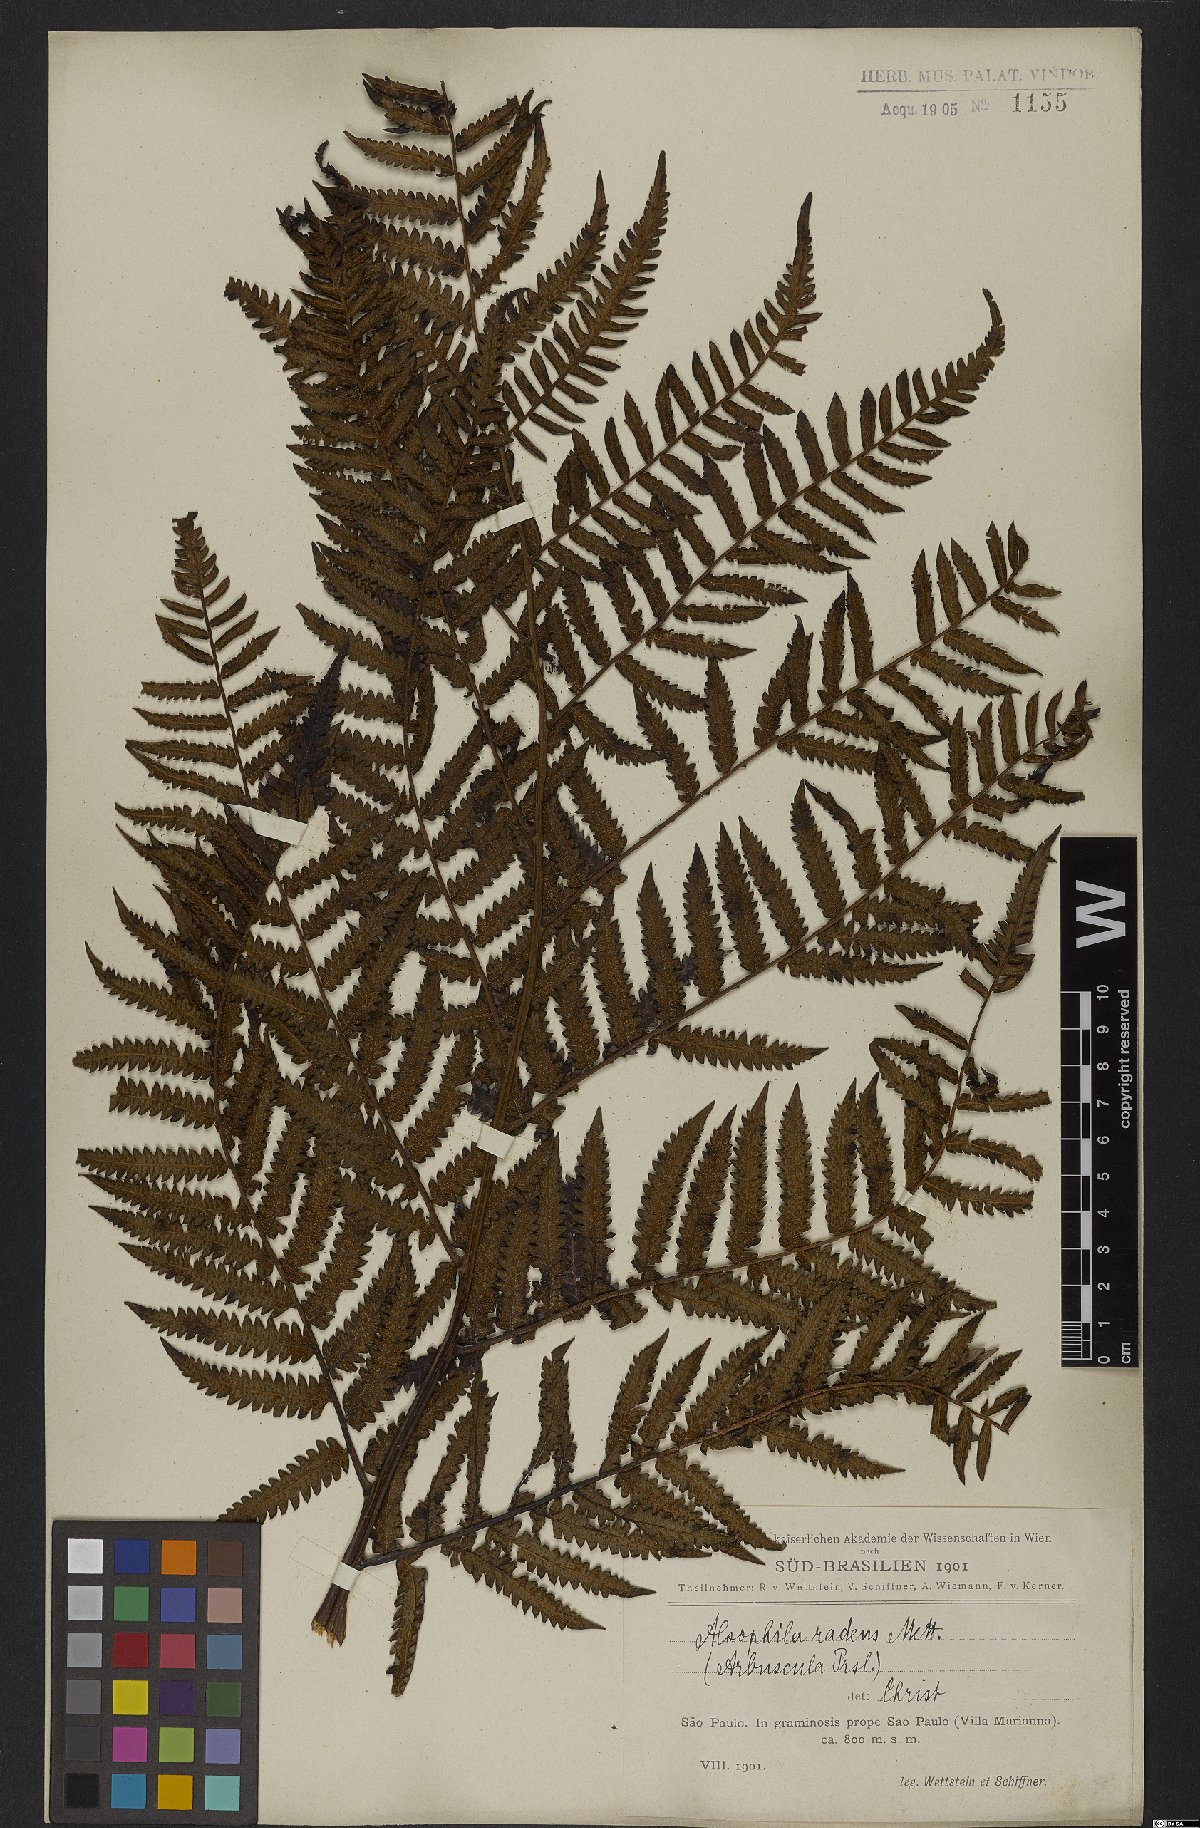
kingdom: Plantae
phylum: Tracheophyta
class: Polypodiopsida
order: Cyatheales
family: Cyatheaceae
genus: Cyathea
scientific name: Cyathea atrovirens
